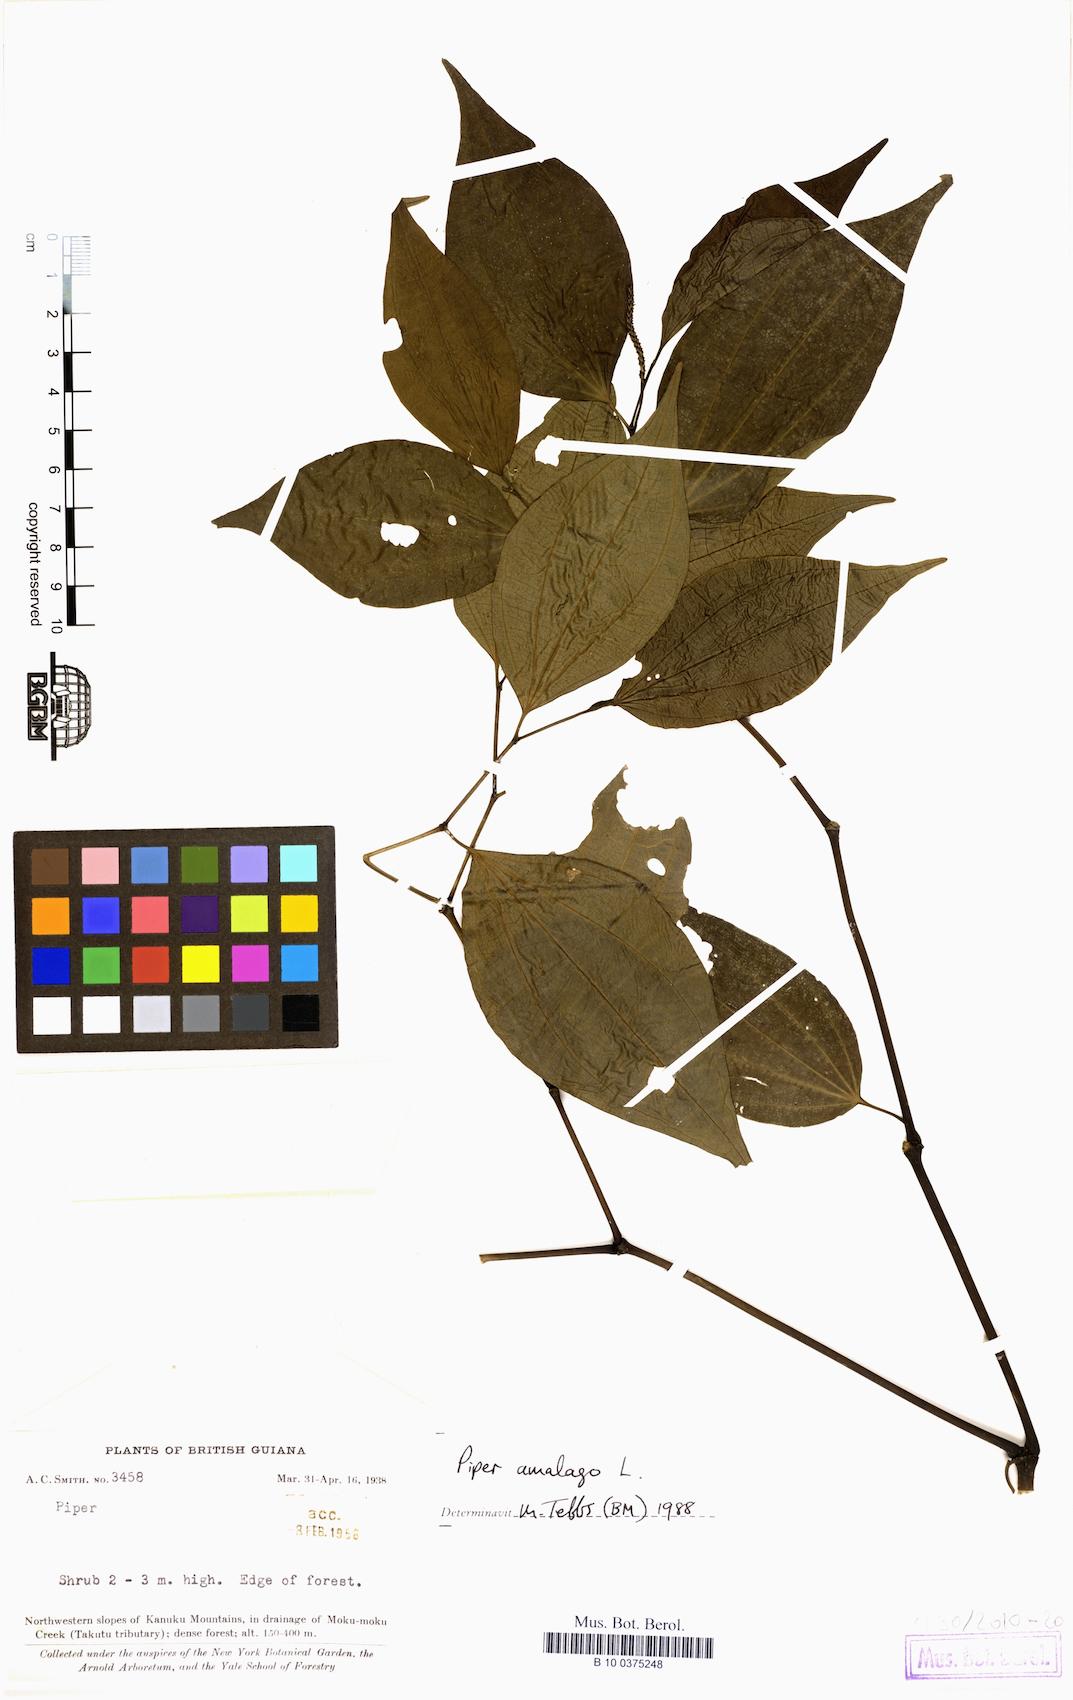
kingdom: Plantae
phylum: Tracheophyta
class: Magnoliopsida
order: Piperales
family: Piperaceae
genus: Piper
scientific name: Piper amalago
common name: Pepper-elder
